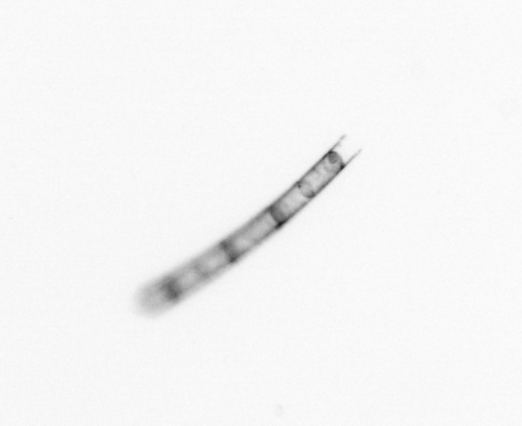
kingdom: Chromista
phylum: Ochrophyta
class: Bacillariophyceae
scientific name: Bacillariophyceae
